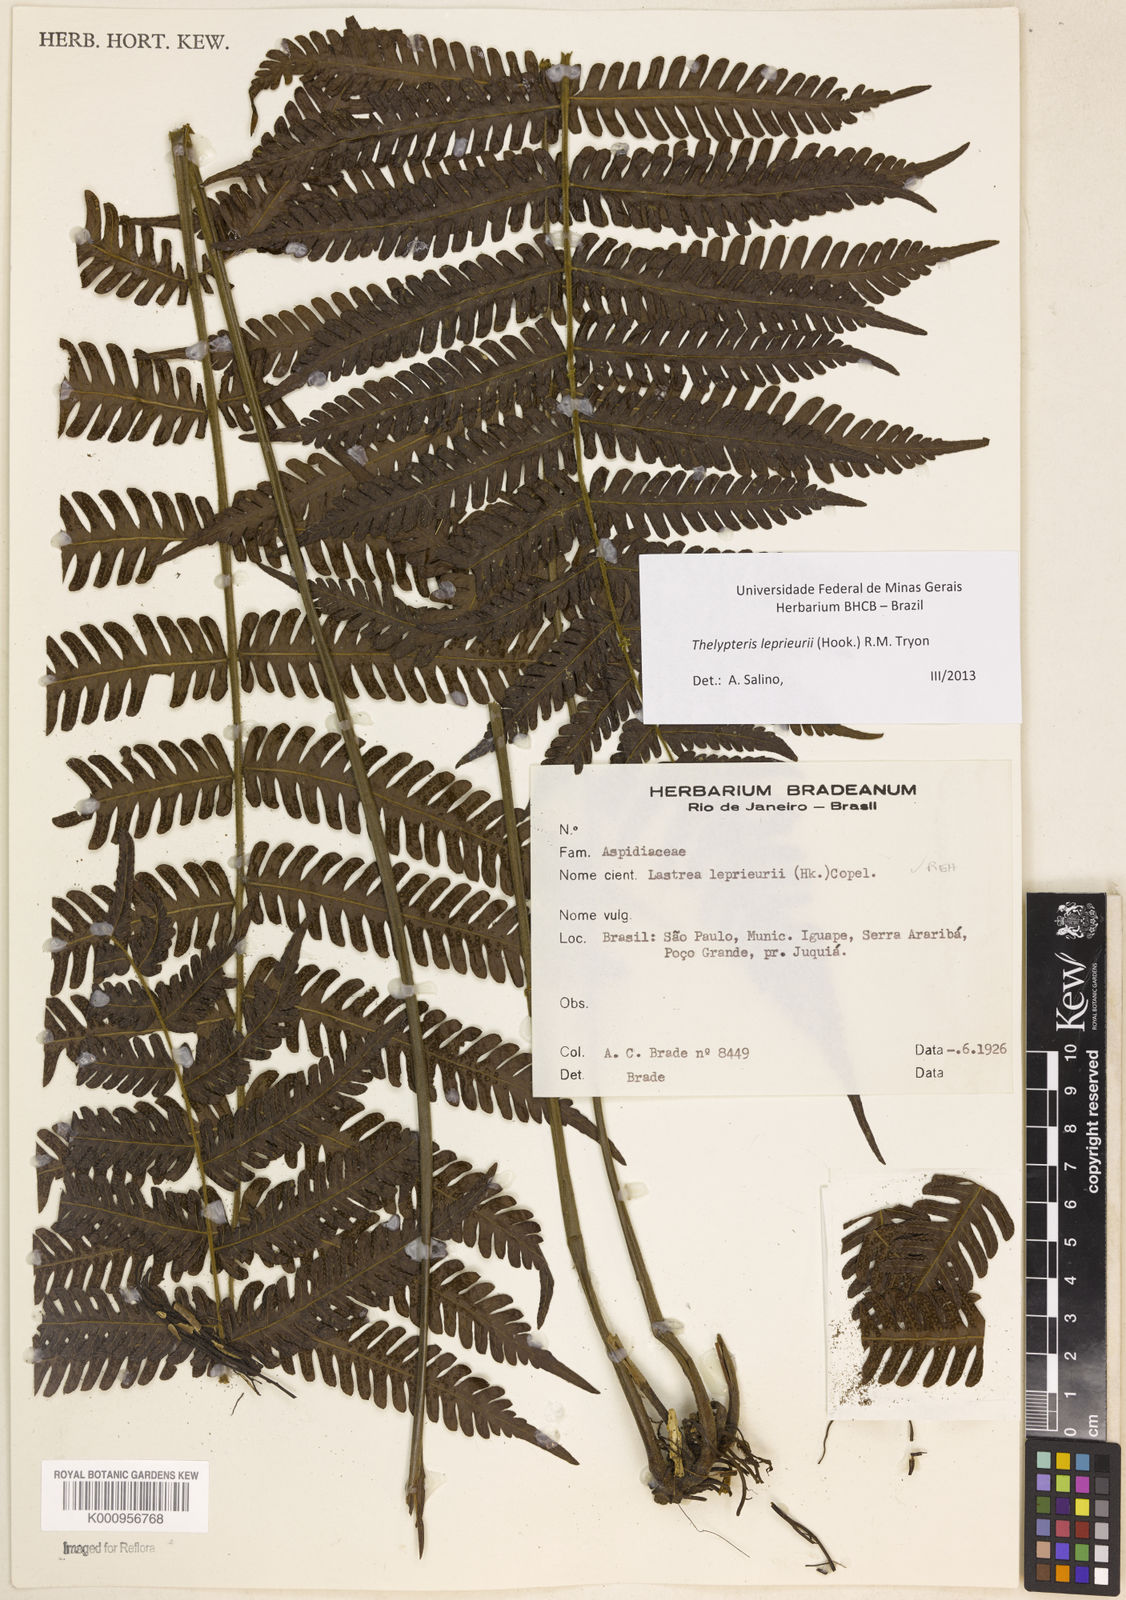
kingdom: Plantae
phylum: Tracheophyta
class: Polypodiopsida
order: Polypodiales
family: Thelypteridaceae
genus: Steiropteris
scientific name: Steiropteris leprieurii
